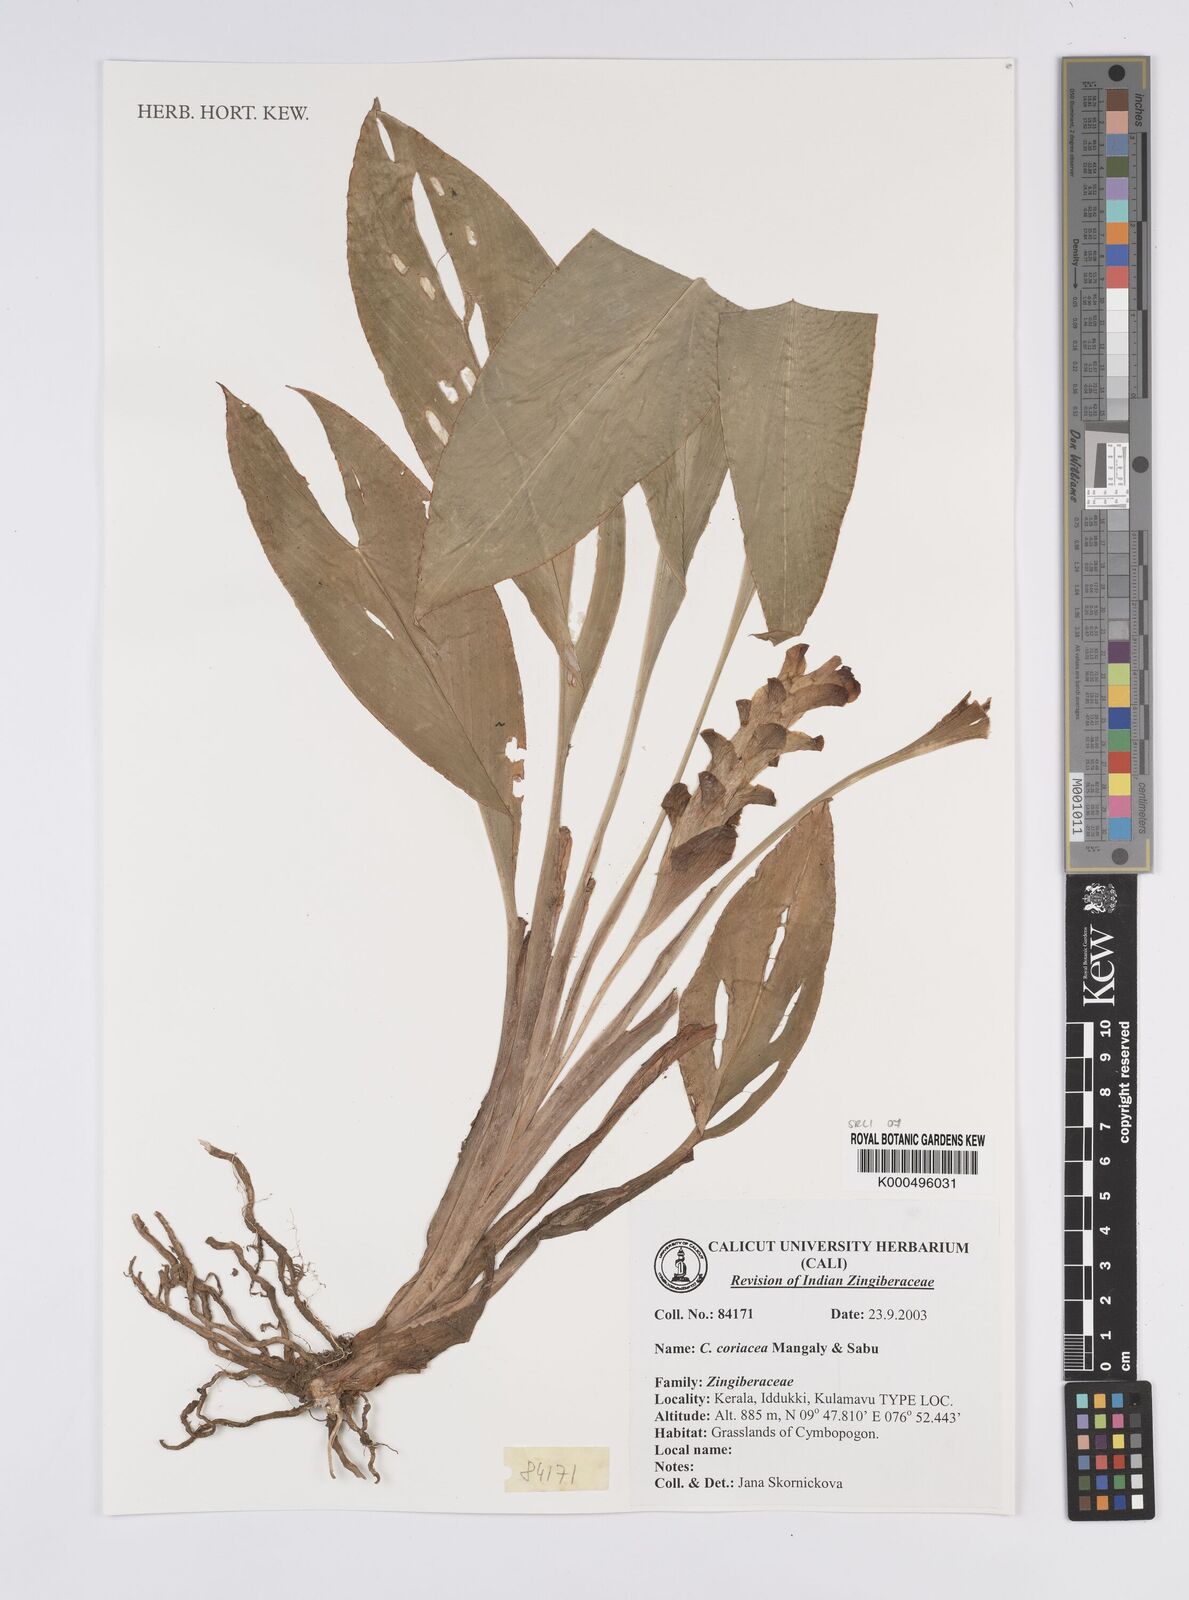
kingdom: Plantae
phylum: Tracheophyta
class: Liliopsida
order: Zingiberales
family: Zingiberaceae
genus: Curcuma
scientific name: Curcuma coriacea
